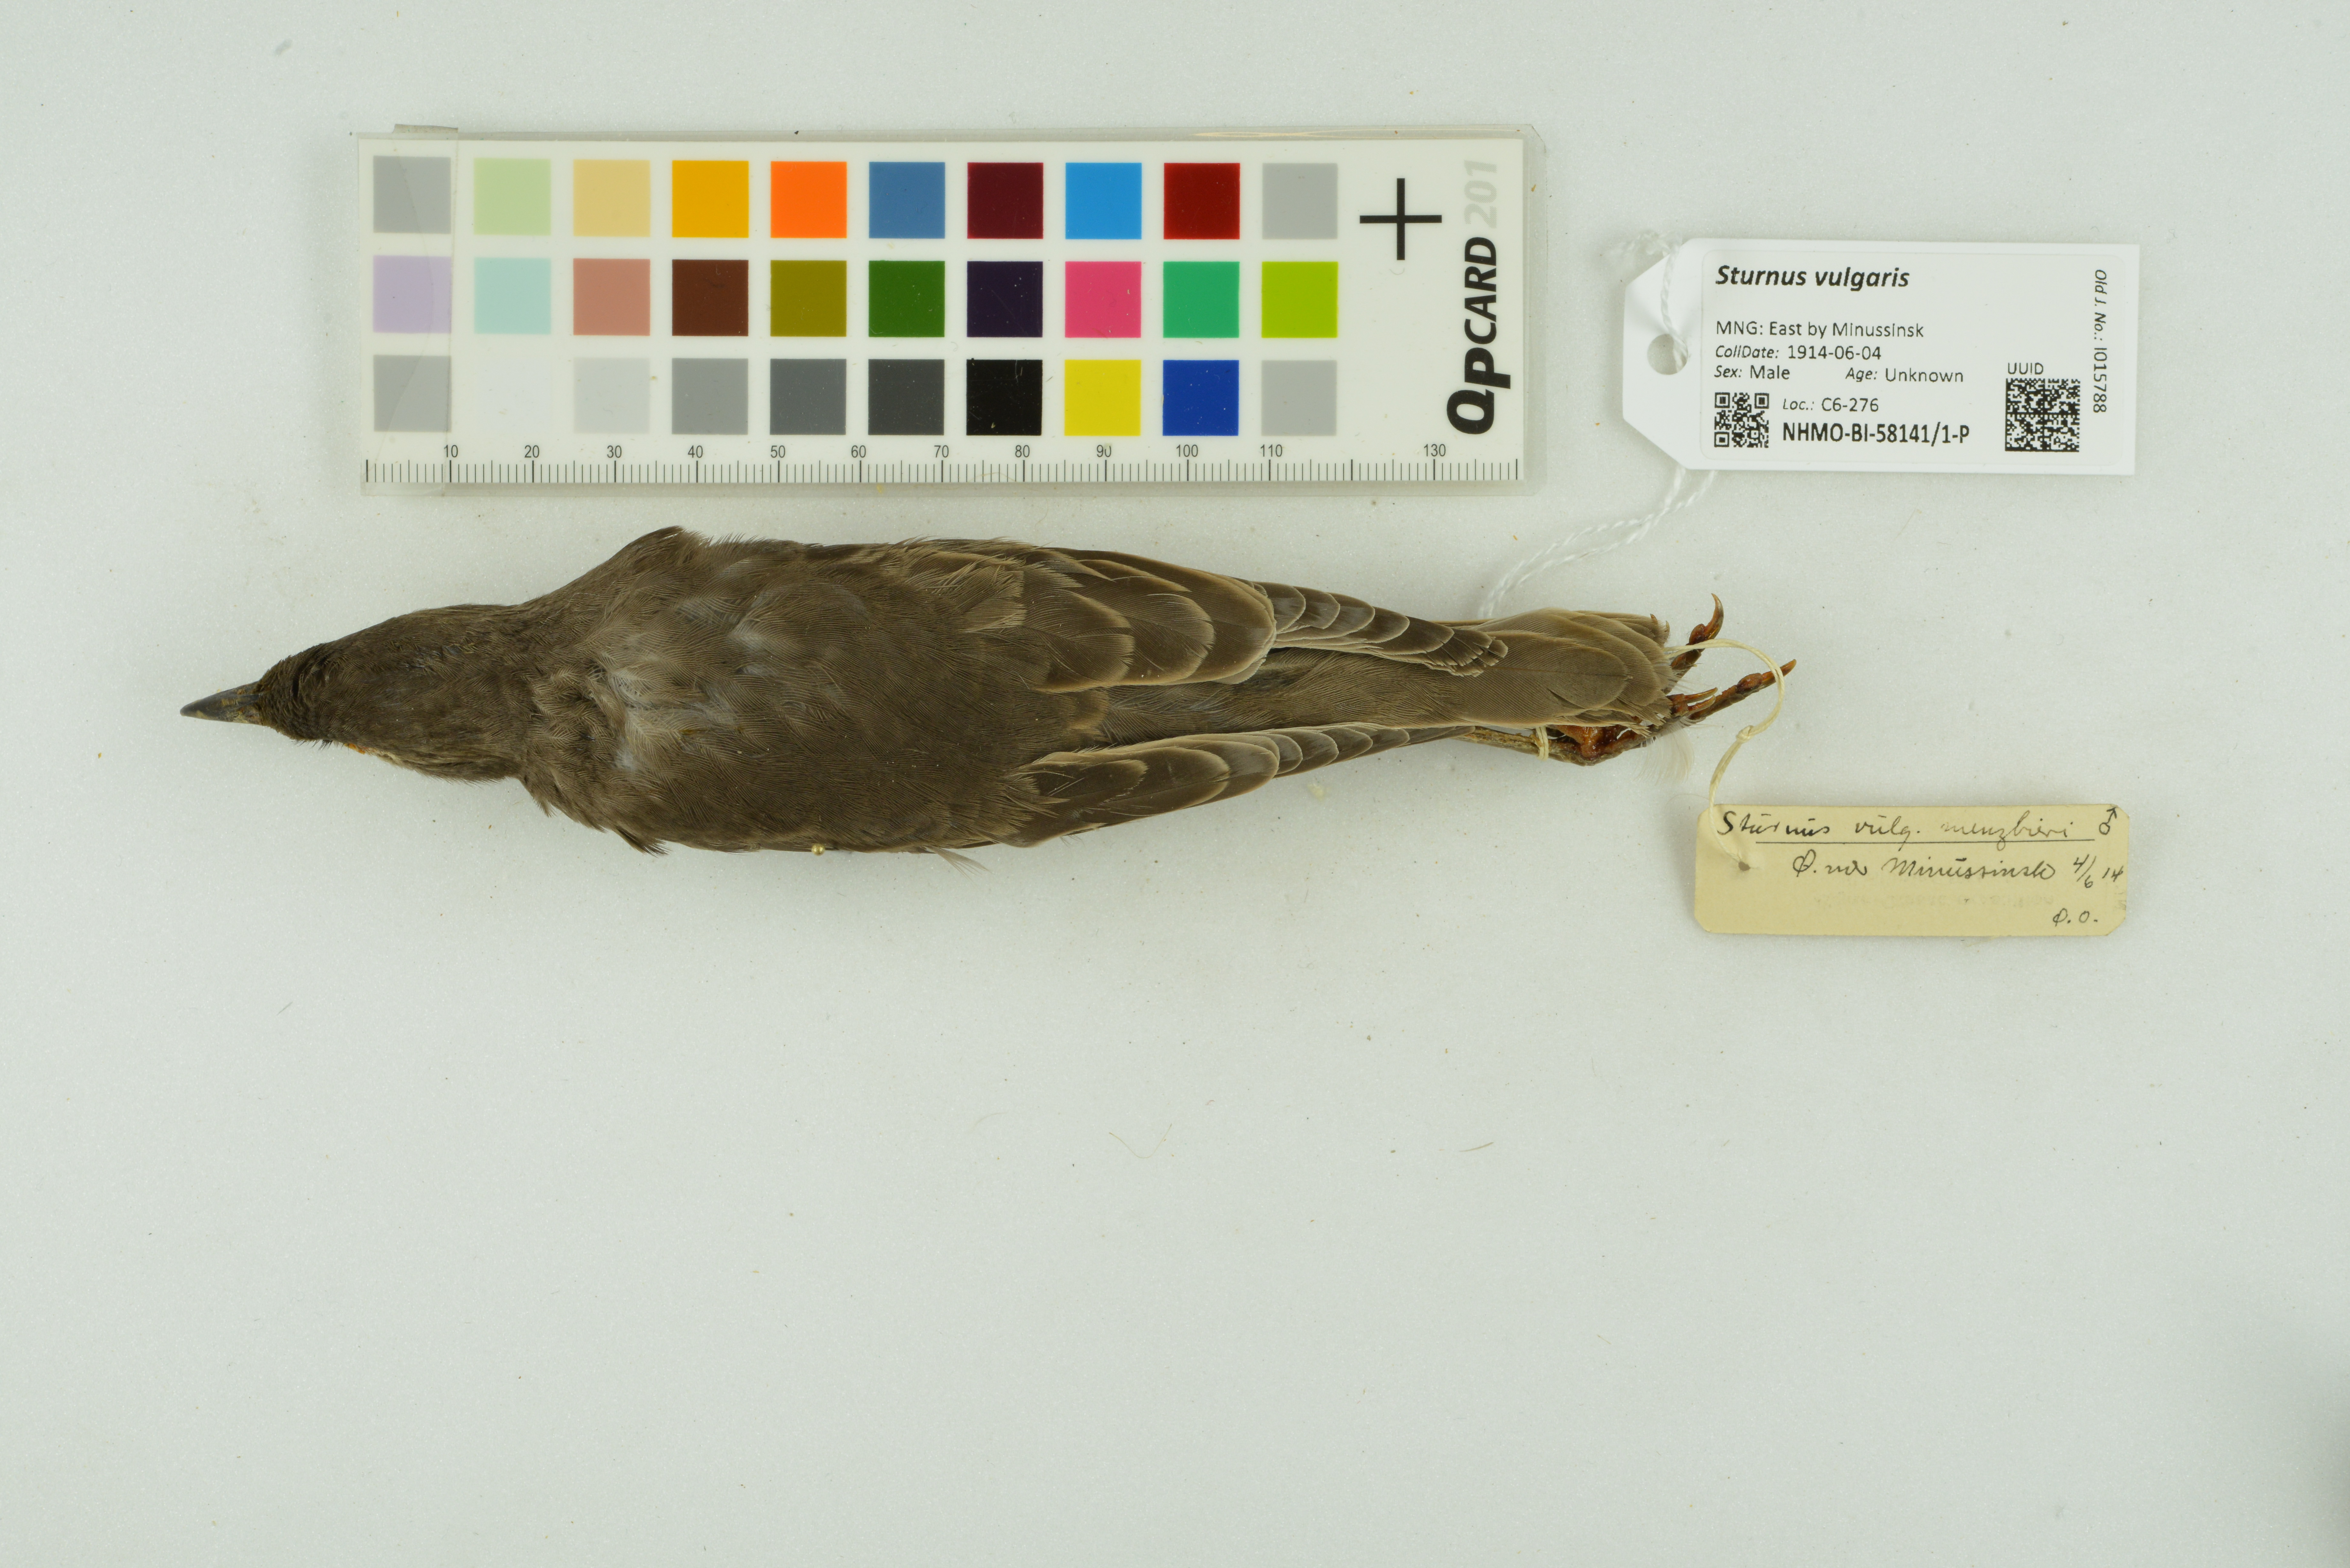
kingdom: Animalia
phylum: Chordata
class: Aves
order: Passeriformes
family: Sturnidae
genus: Sturnus
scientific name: Sturnus vulgaris
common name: Common starling
